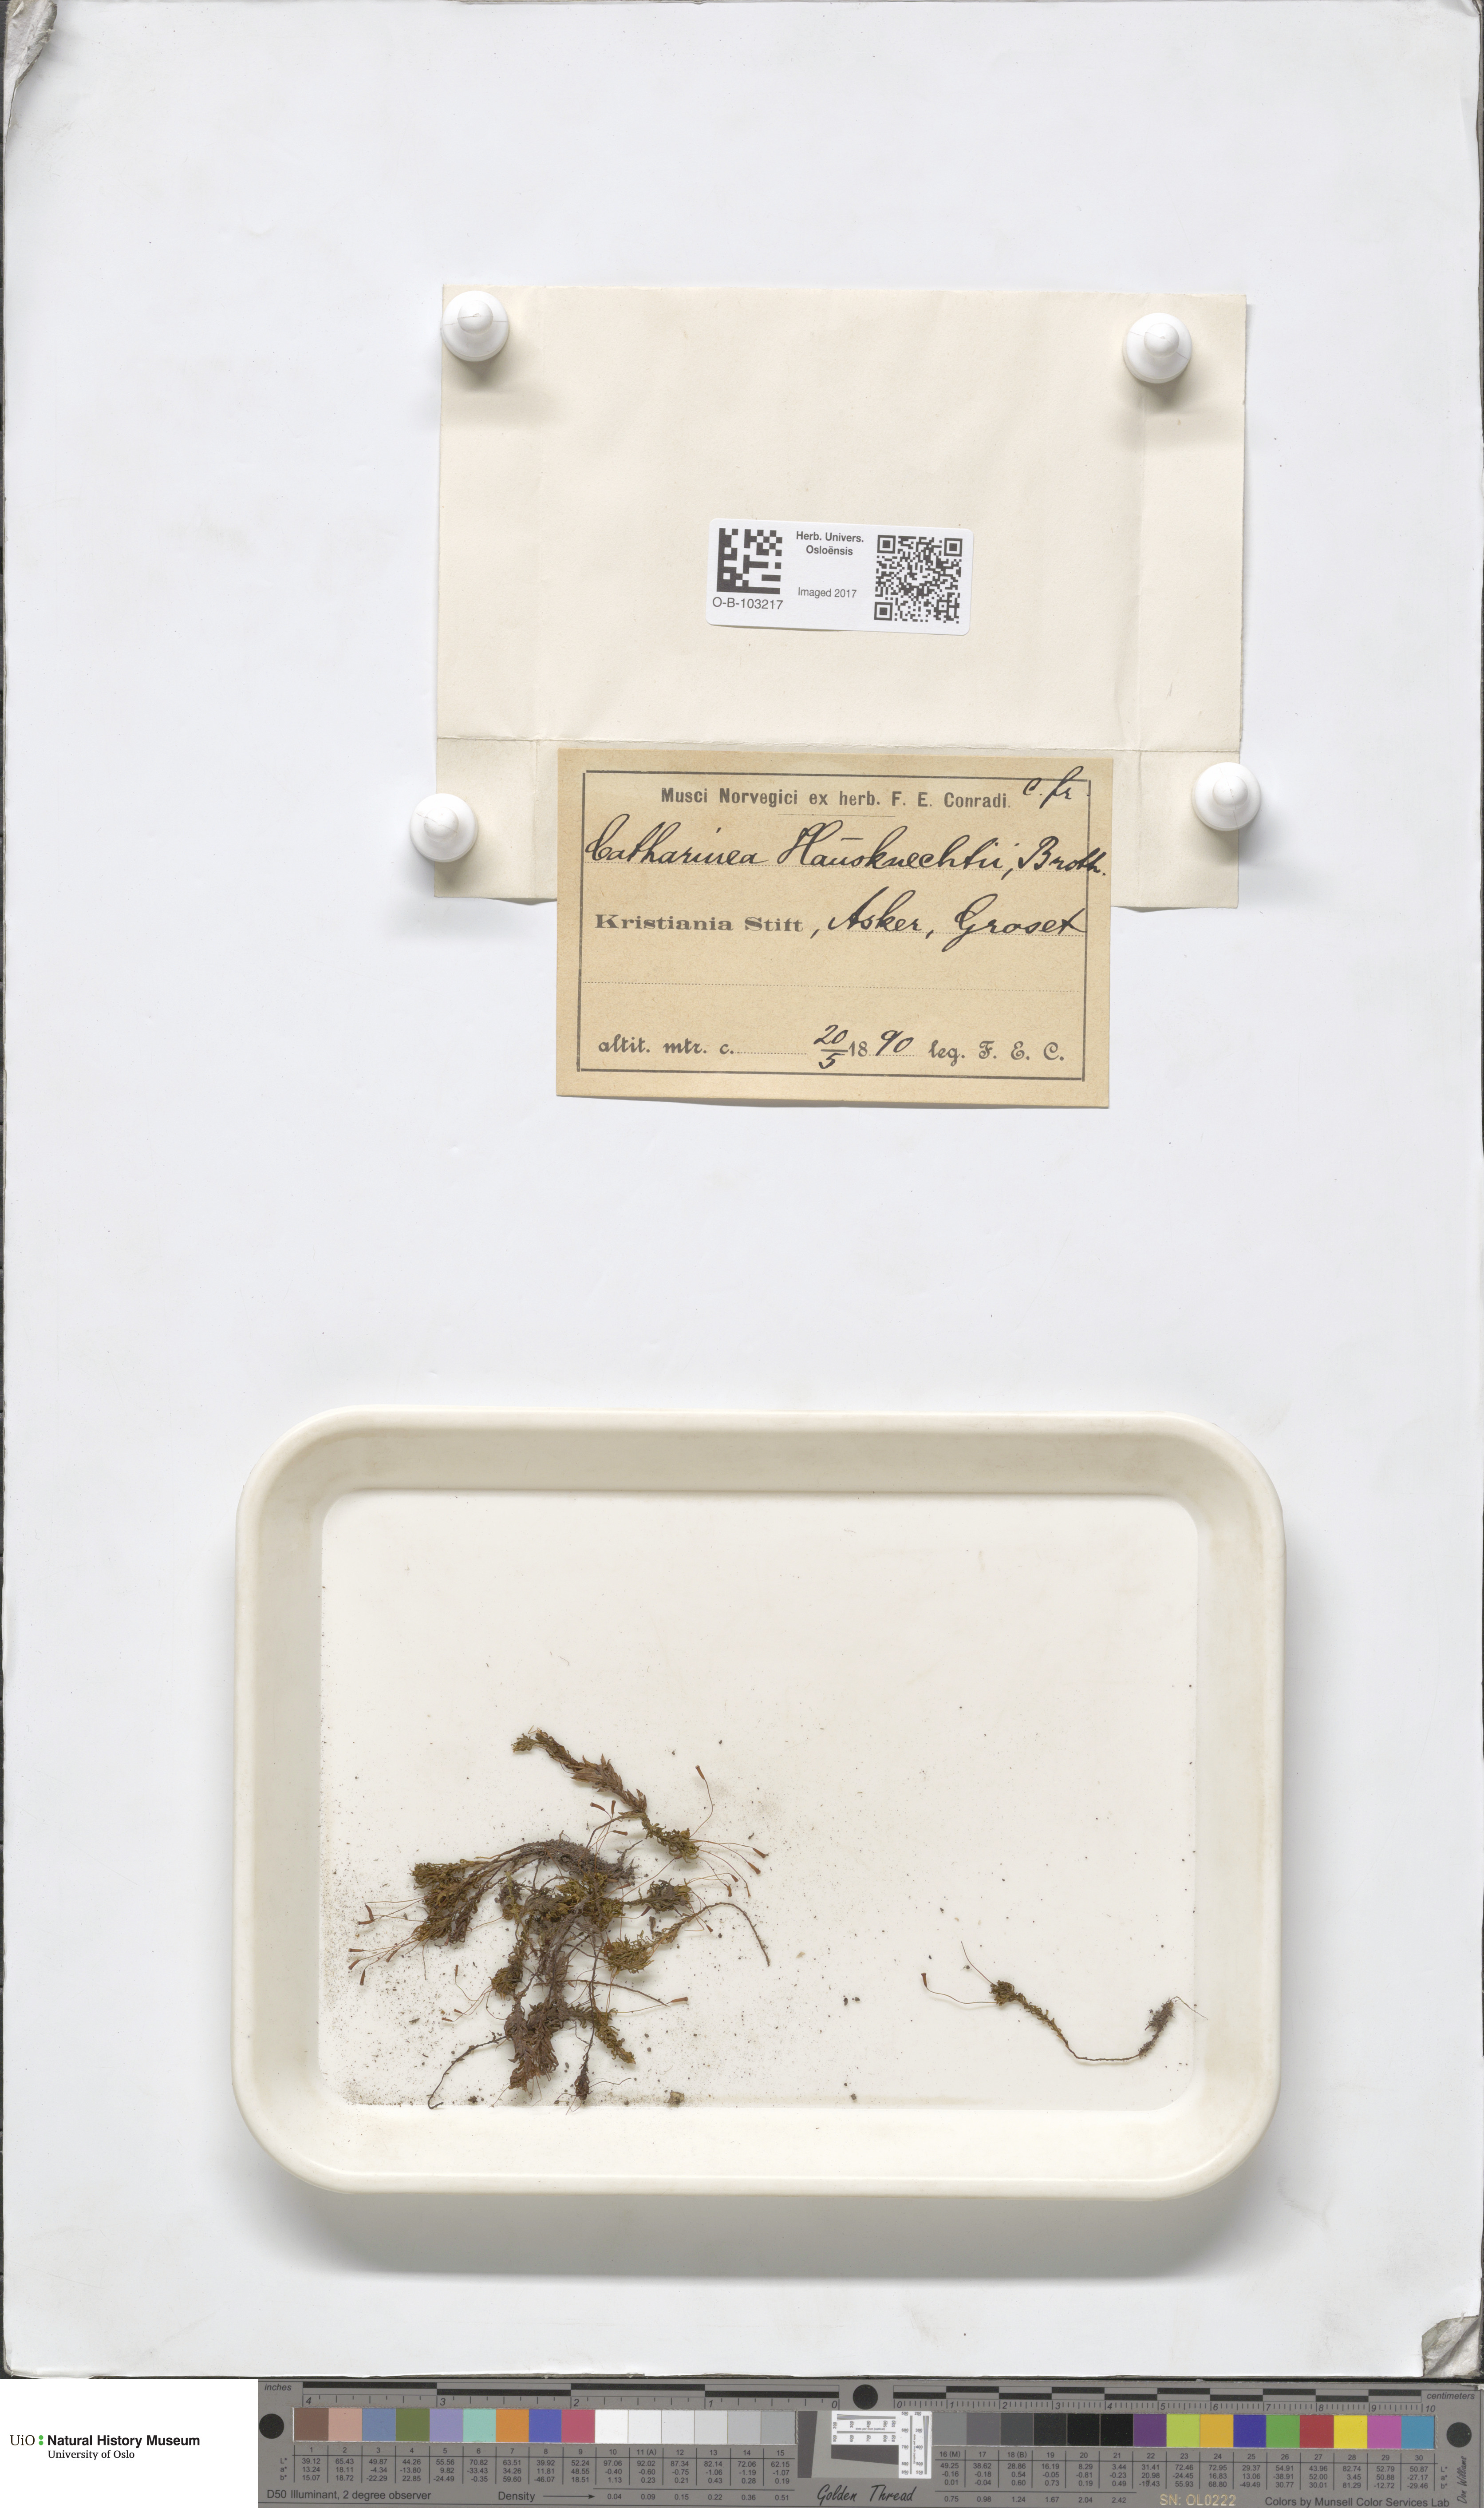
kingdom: Plantae
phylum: Bryophyta
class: Polytrichopsida
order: Polytrichales
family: Polytrichaceae
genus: Atrichum
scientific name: Atrichum undulatum
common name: Common smoothcap
